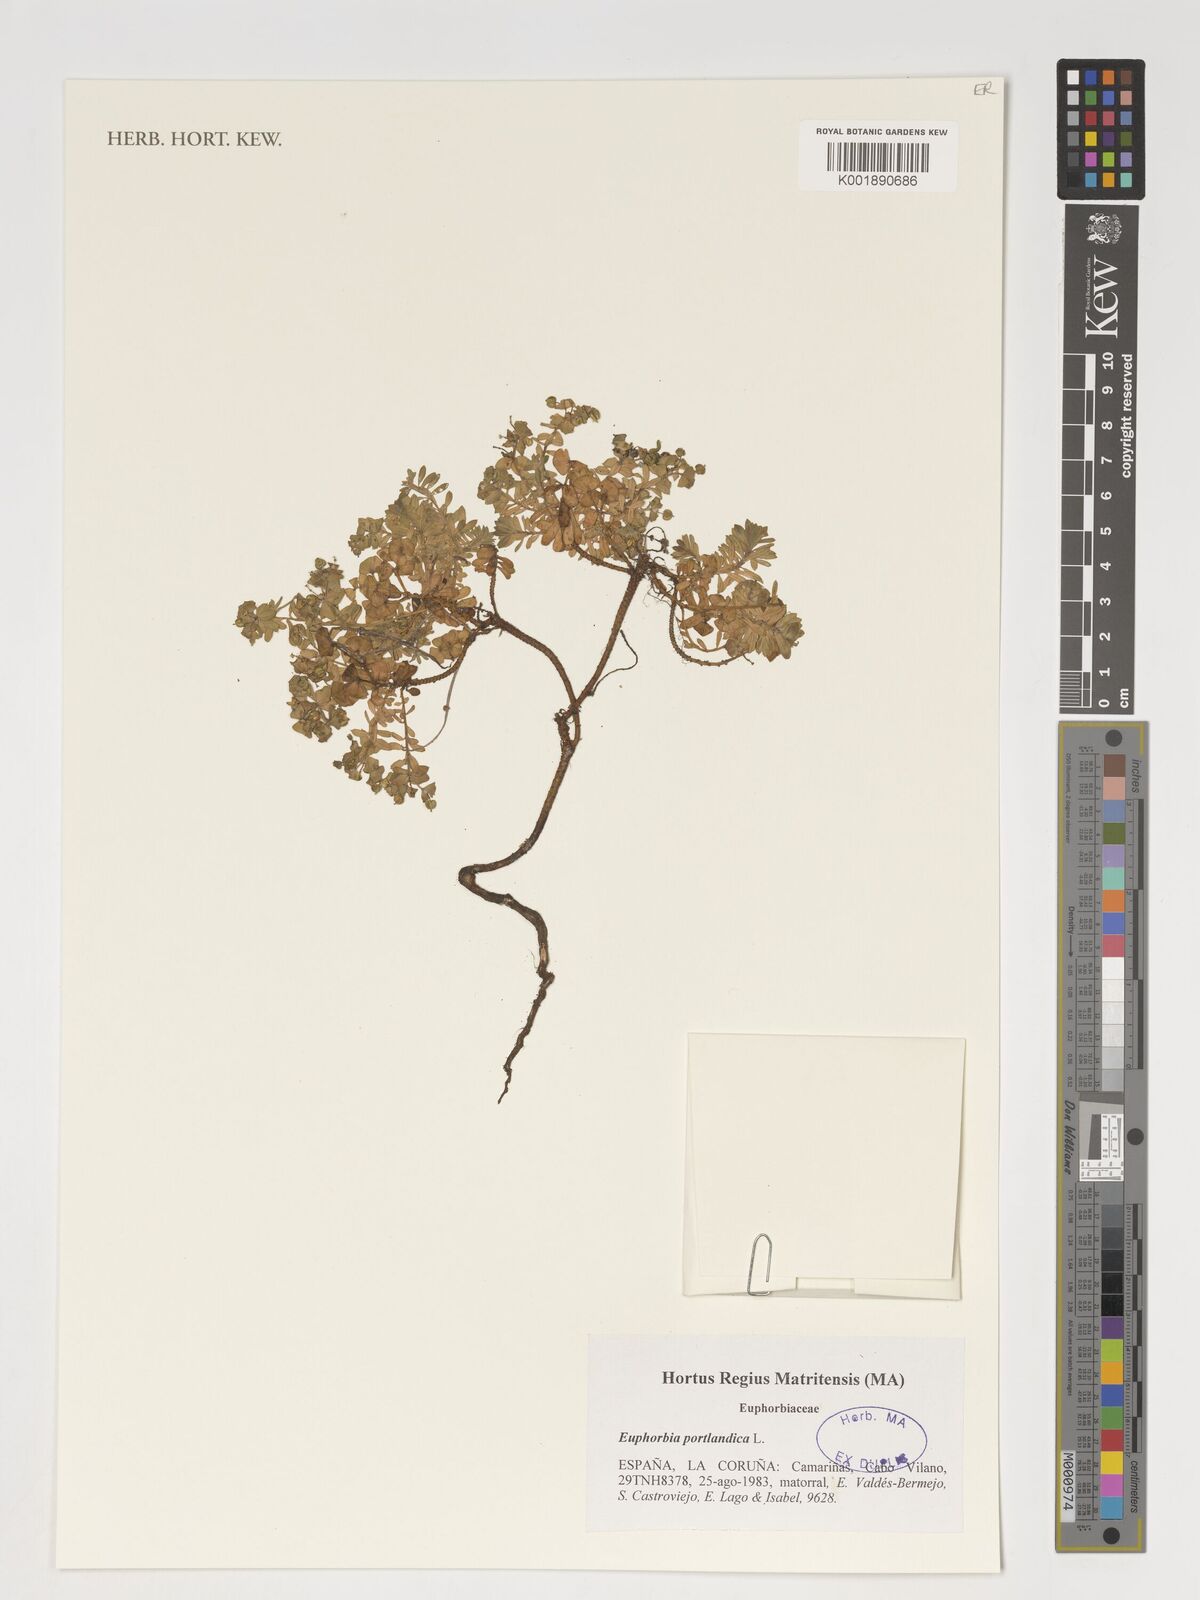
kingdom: Plantae
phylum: Tracheophyta
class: Magnoliopsida
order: Malpighiales
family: Euphorbiaceae
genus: Euphorbia
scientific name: Euphorbia portlandica
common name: Portland spurge
